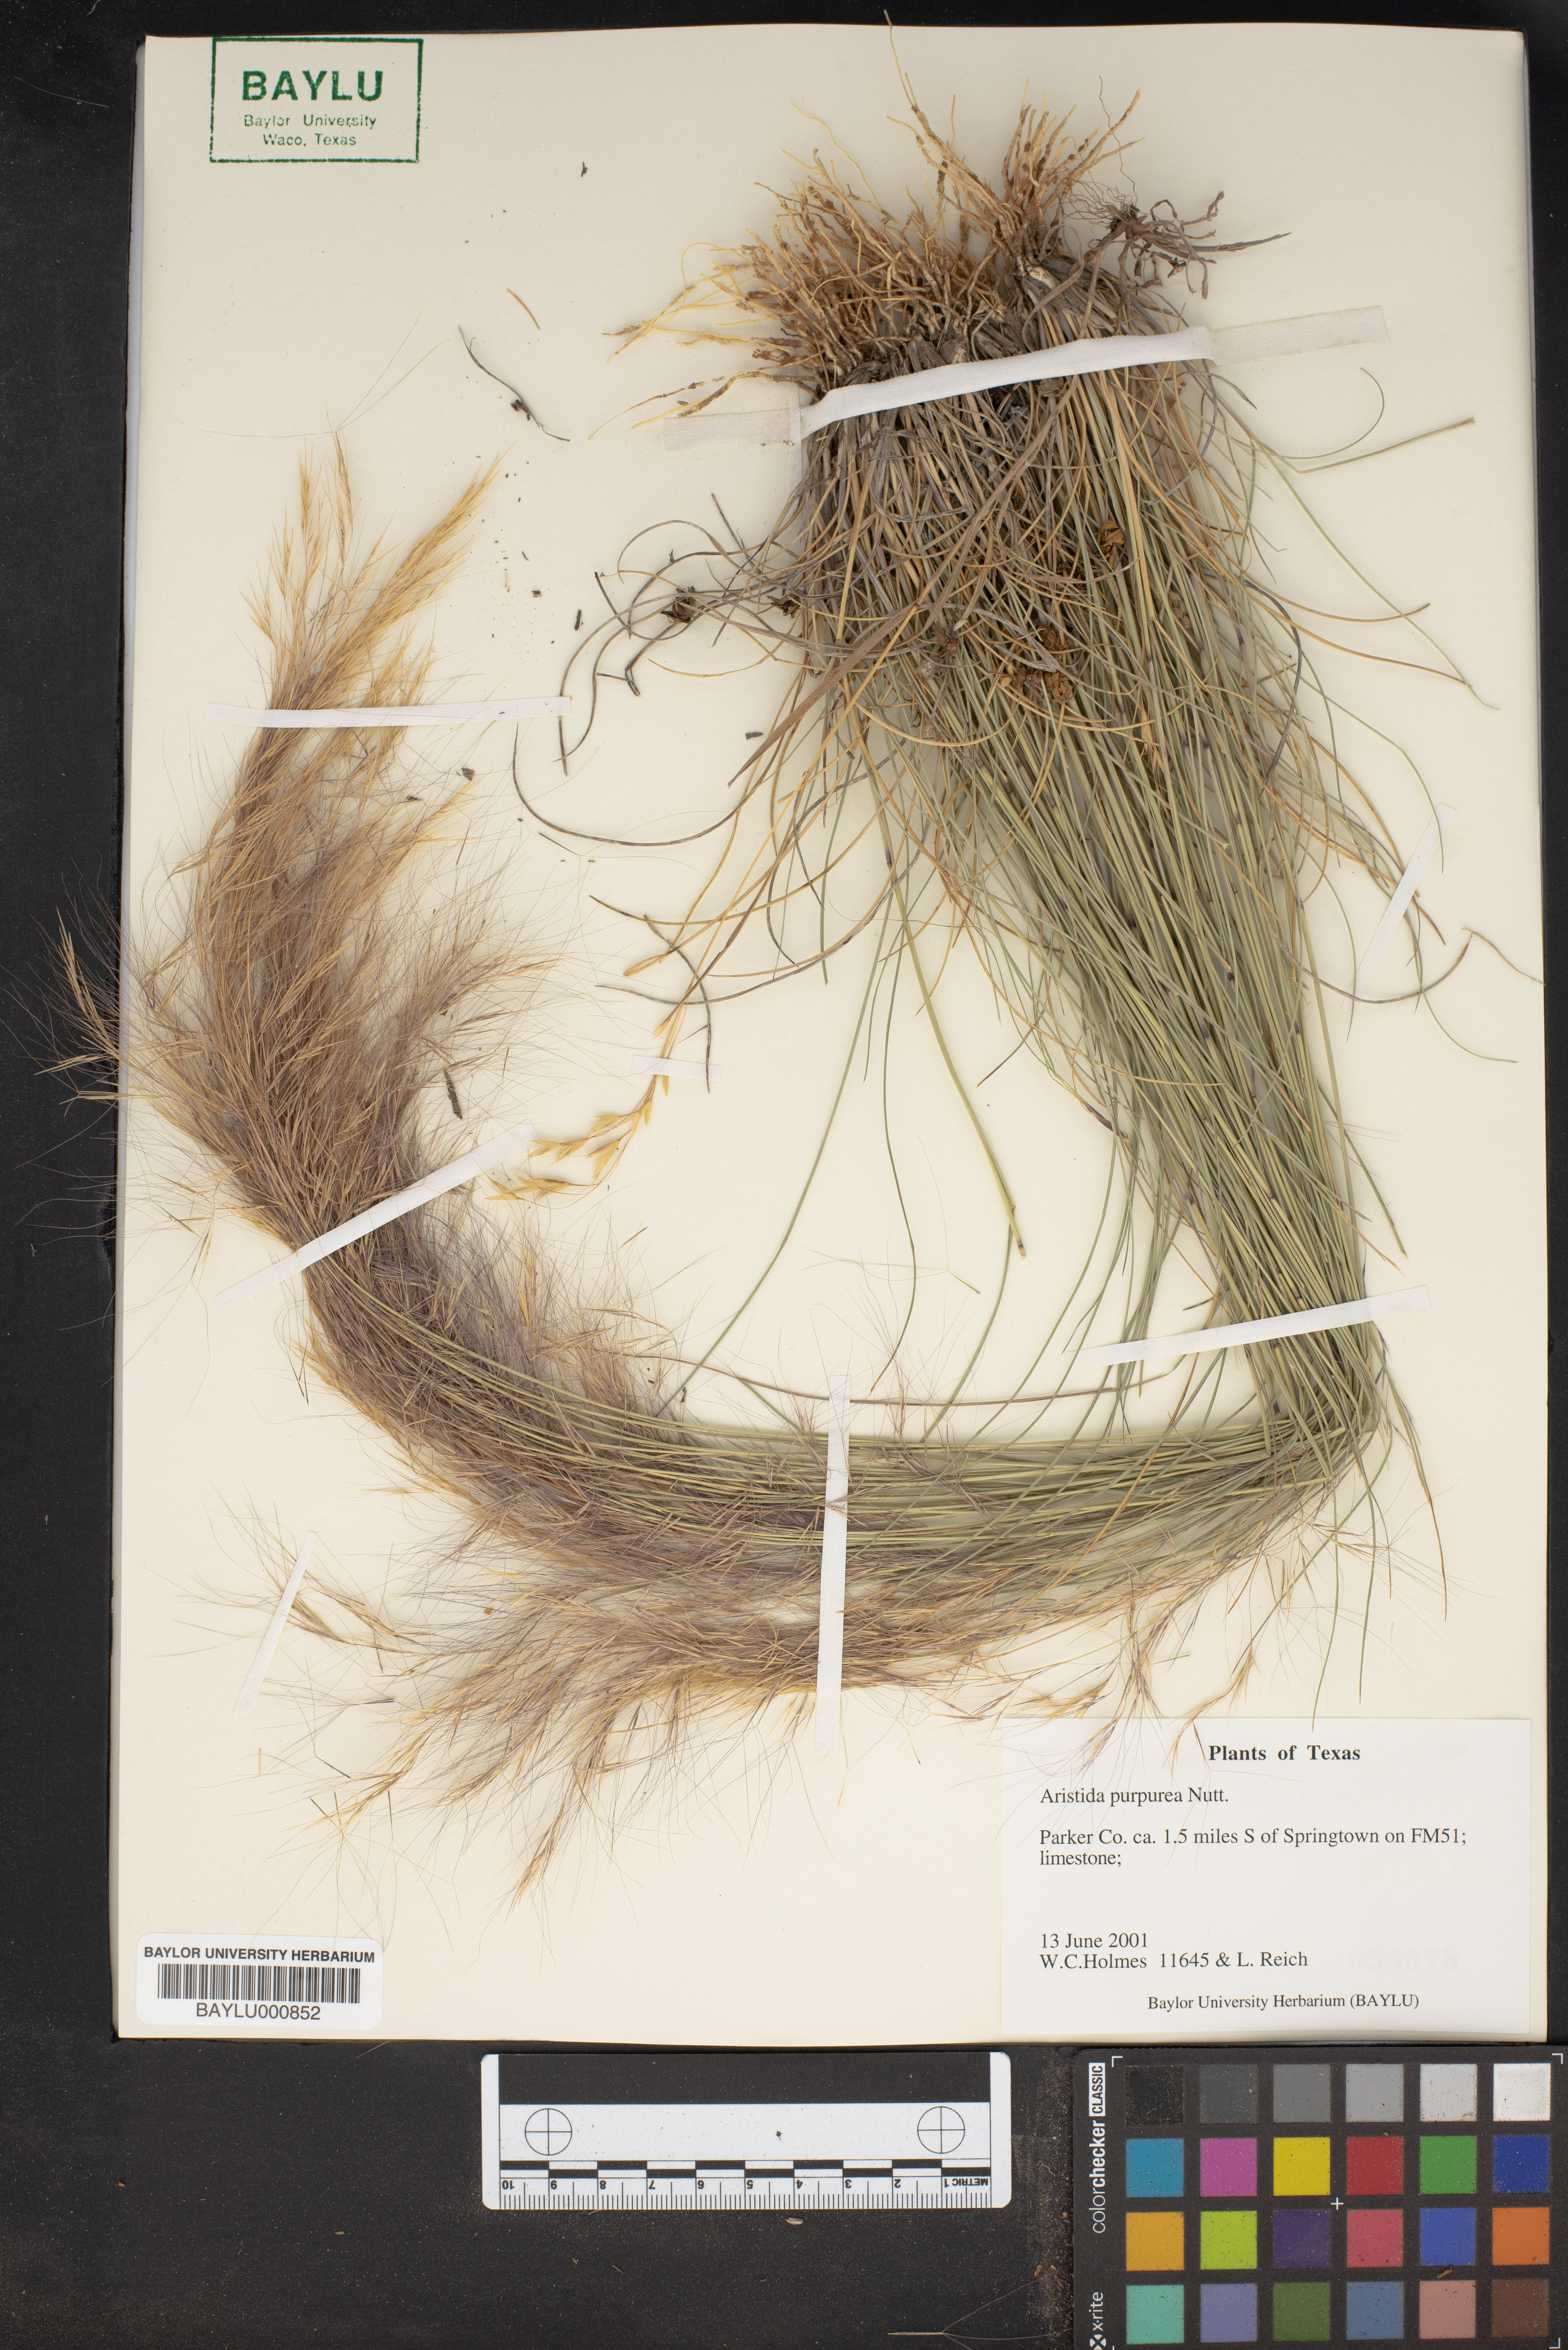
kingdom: Plantae
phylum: Tracheophyta
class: Liliopsida
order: Poales
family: Poaceae
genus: Aristida
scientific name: Aristida purpurea
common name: Purple threeawn
